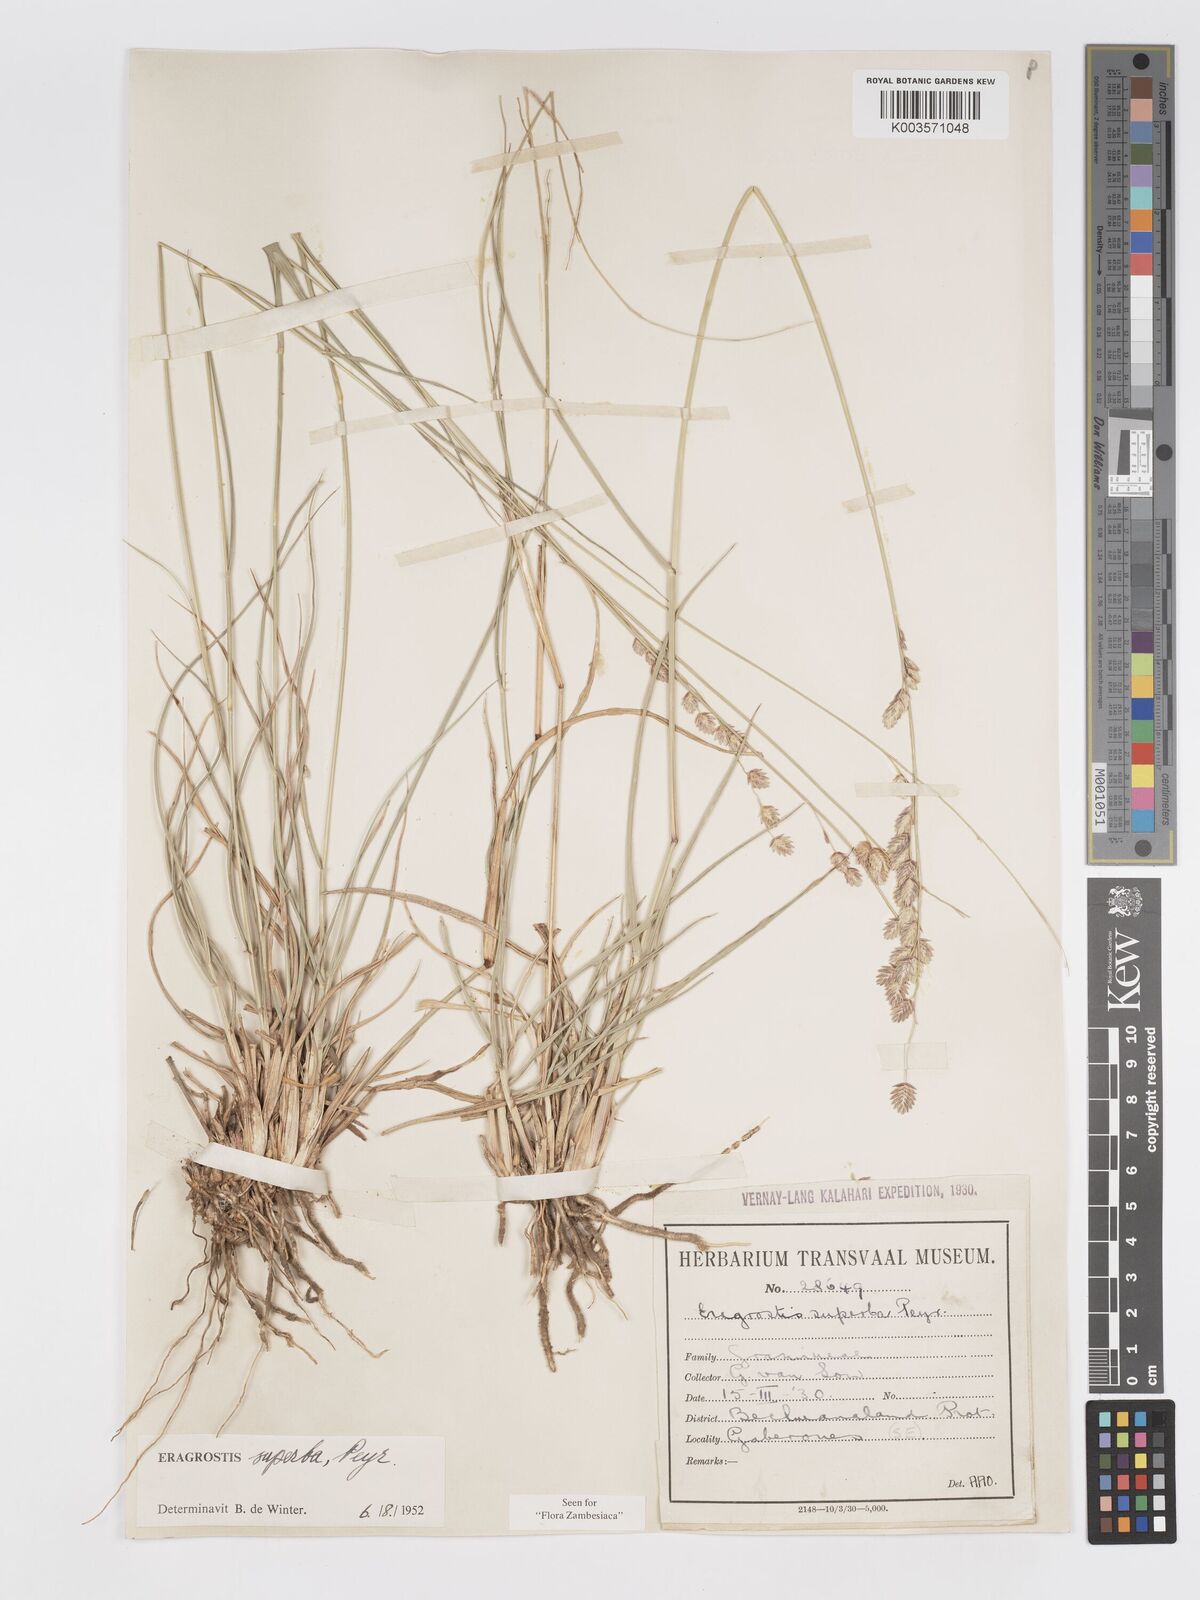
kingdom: Plantae
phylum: Tracheophyta
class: Liliopsida
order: Poales
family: Poaceae
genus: Eragrostis
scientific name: Eragrostis superba
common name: Wilman lovegrass
